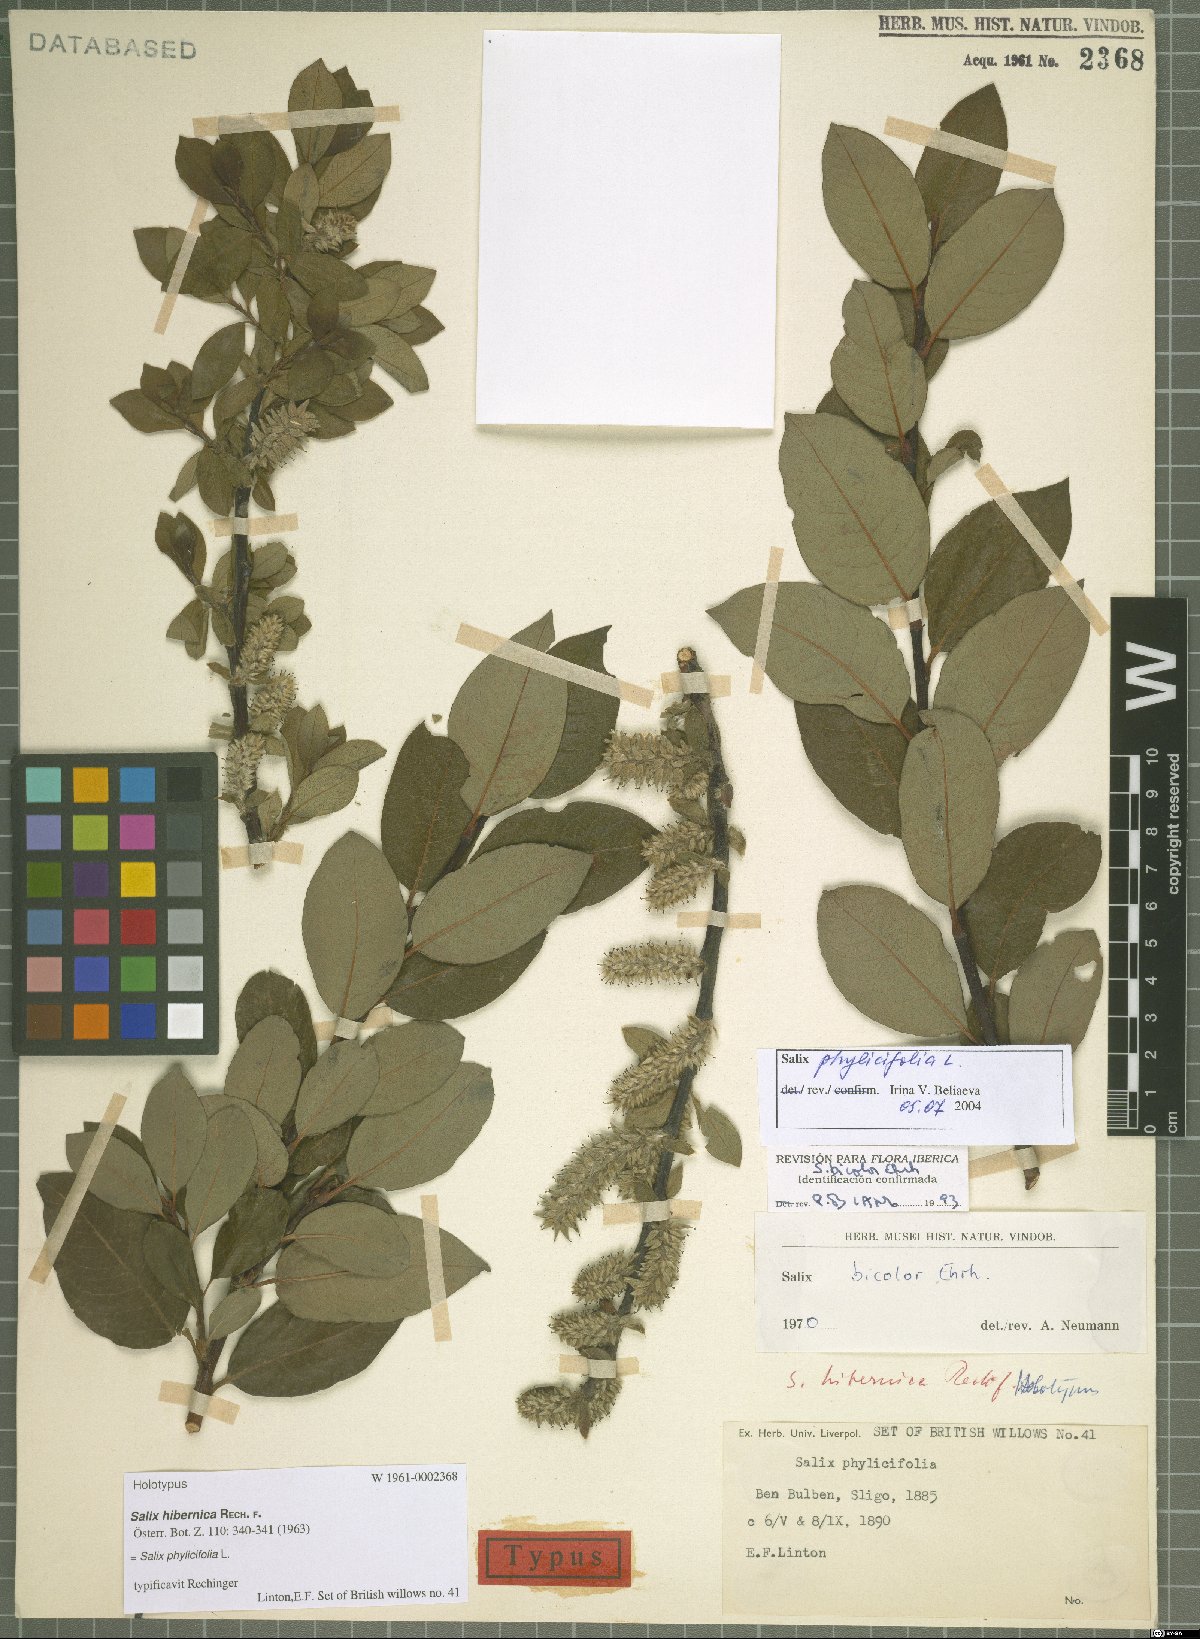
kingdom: Plantae
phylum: Tracheophyta
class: Magnoliopsida
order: Malpighiales
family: Salicaceae
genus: Salix
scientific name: Salix phylicifolia
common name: Tea-leaved willow
